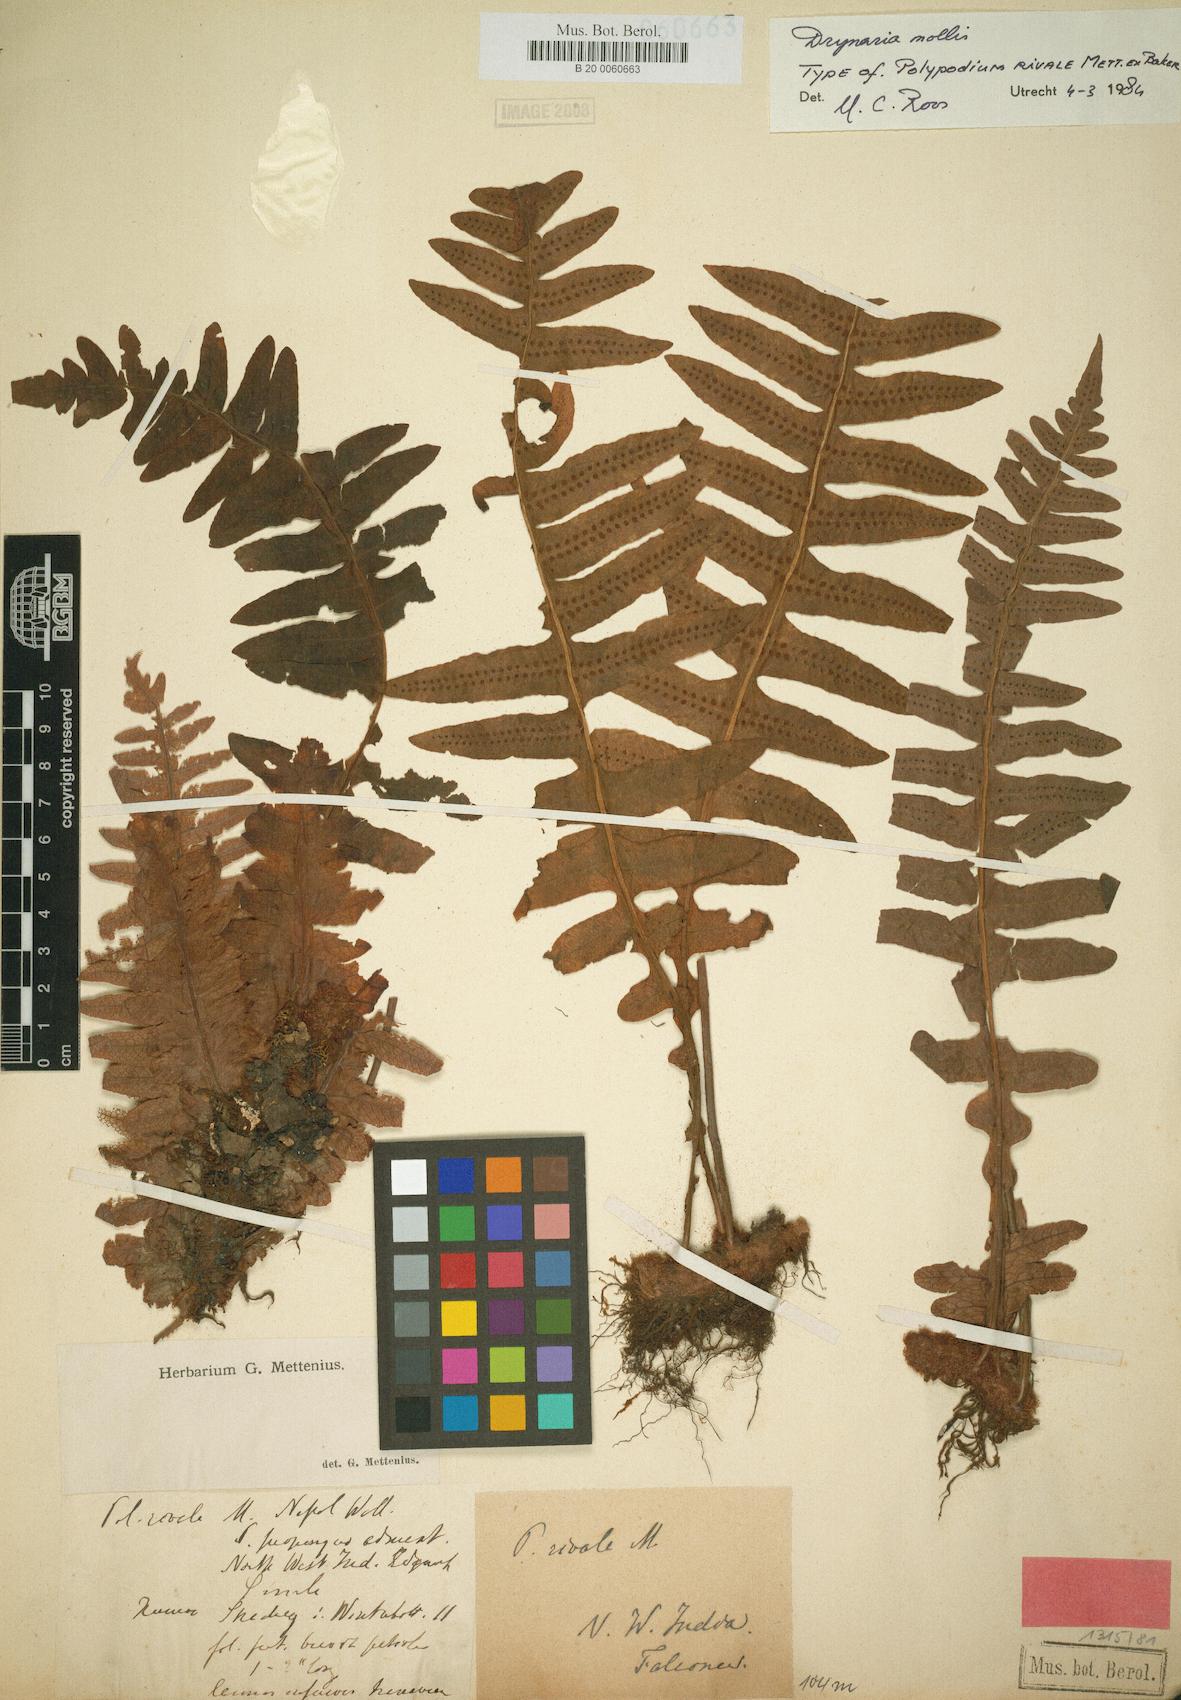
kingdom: Plantae
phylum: Tracheophyta
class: Polypodiopsida
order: Polypodiales
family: Polypodiaceae
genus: Drynaria
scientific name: Drynaria mollis
